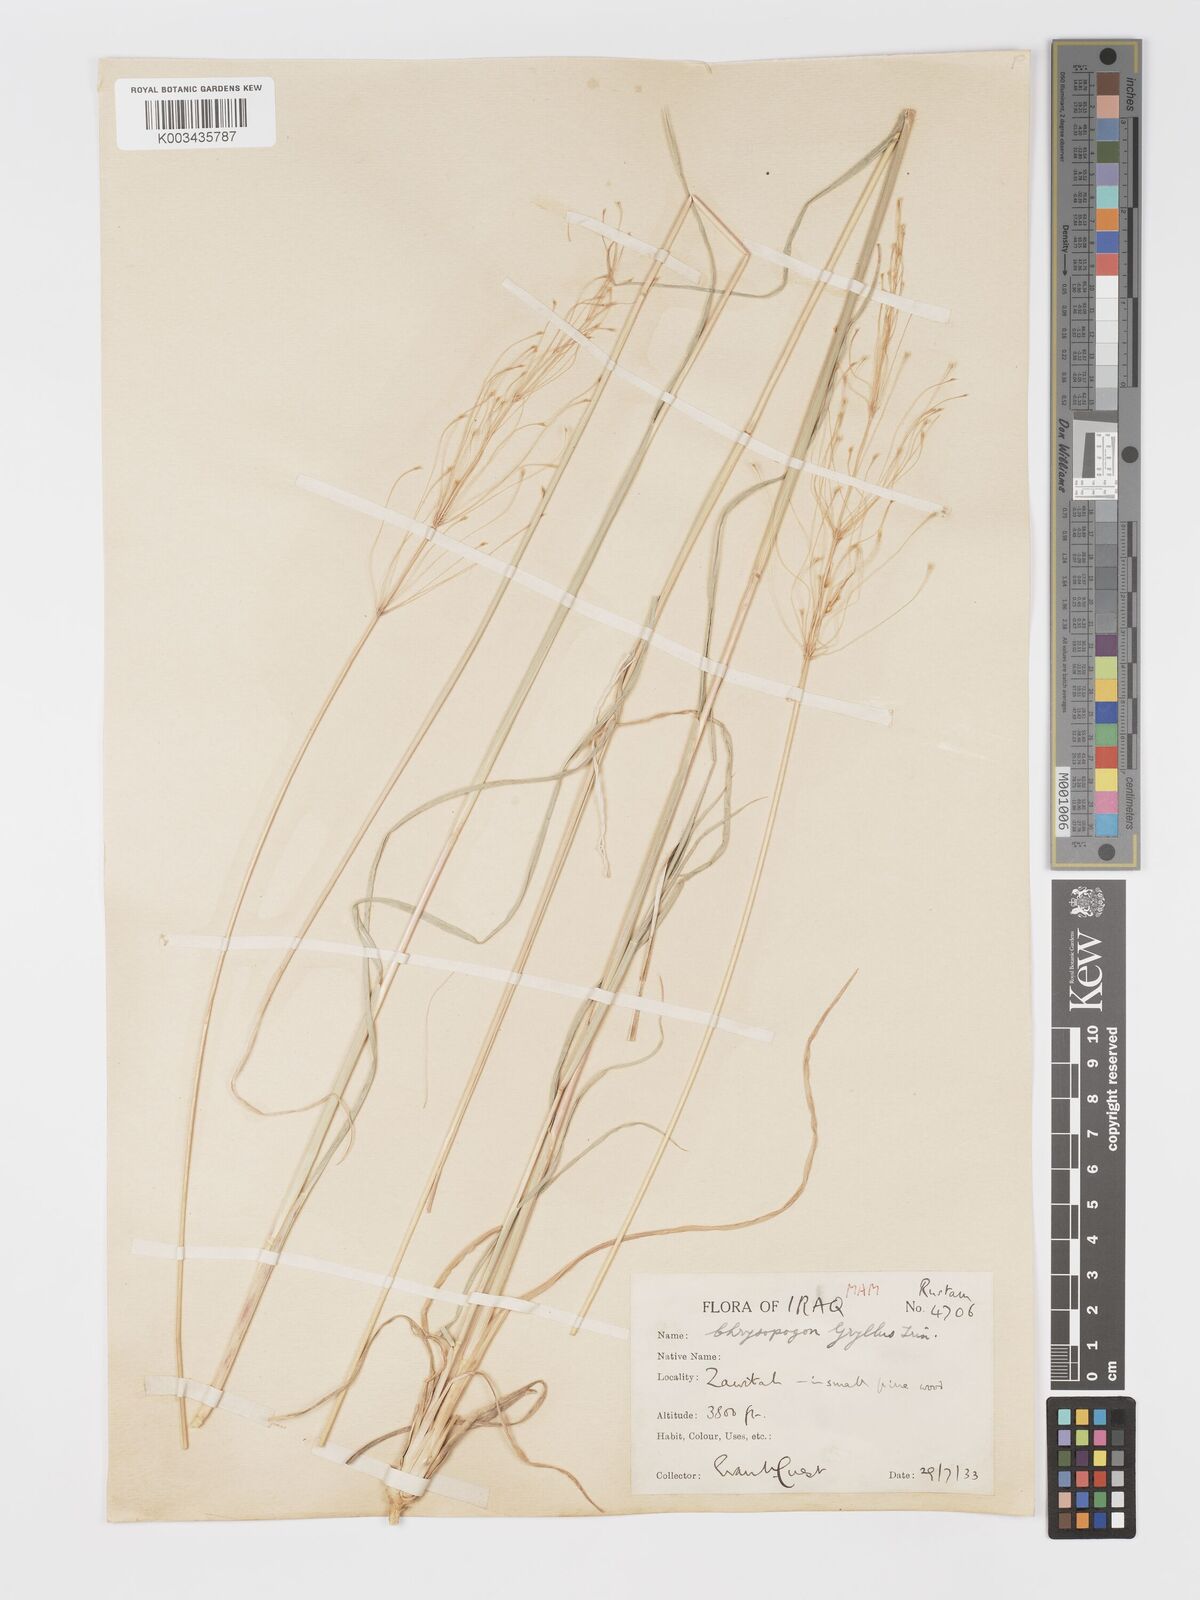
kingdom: Plantae
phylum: Tracheophyta
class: Liliopsida
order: Poales
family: Poaceae
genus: Chrysopogon
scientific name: Chrysopogon gryllus
